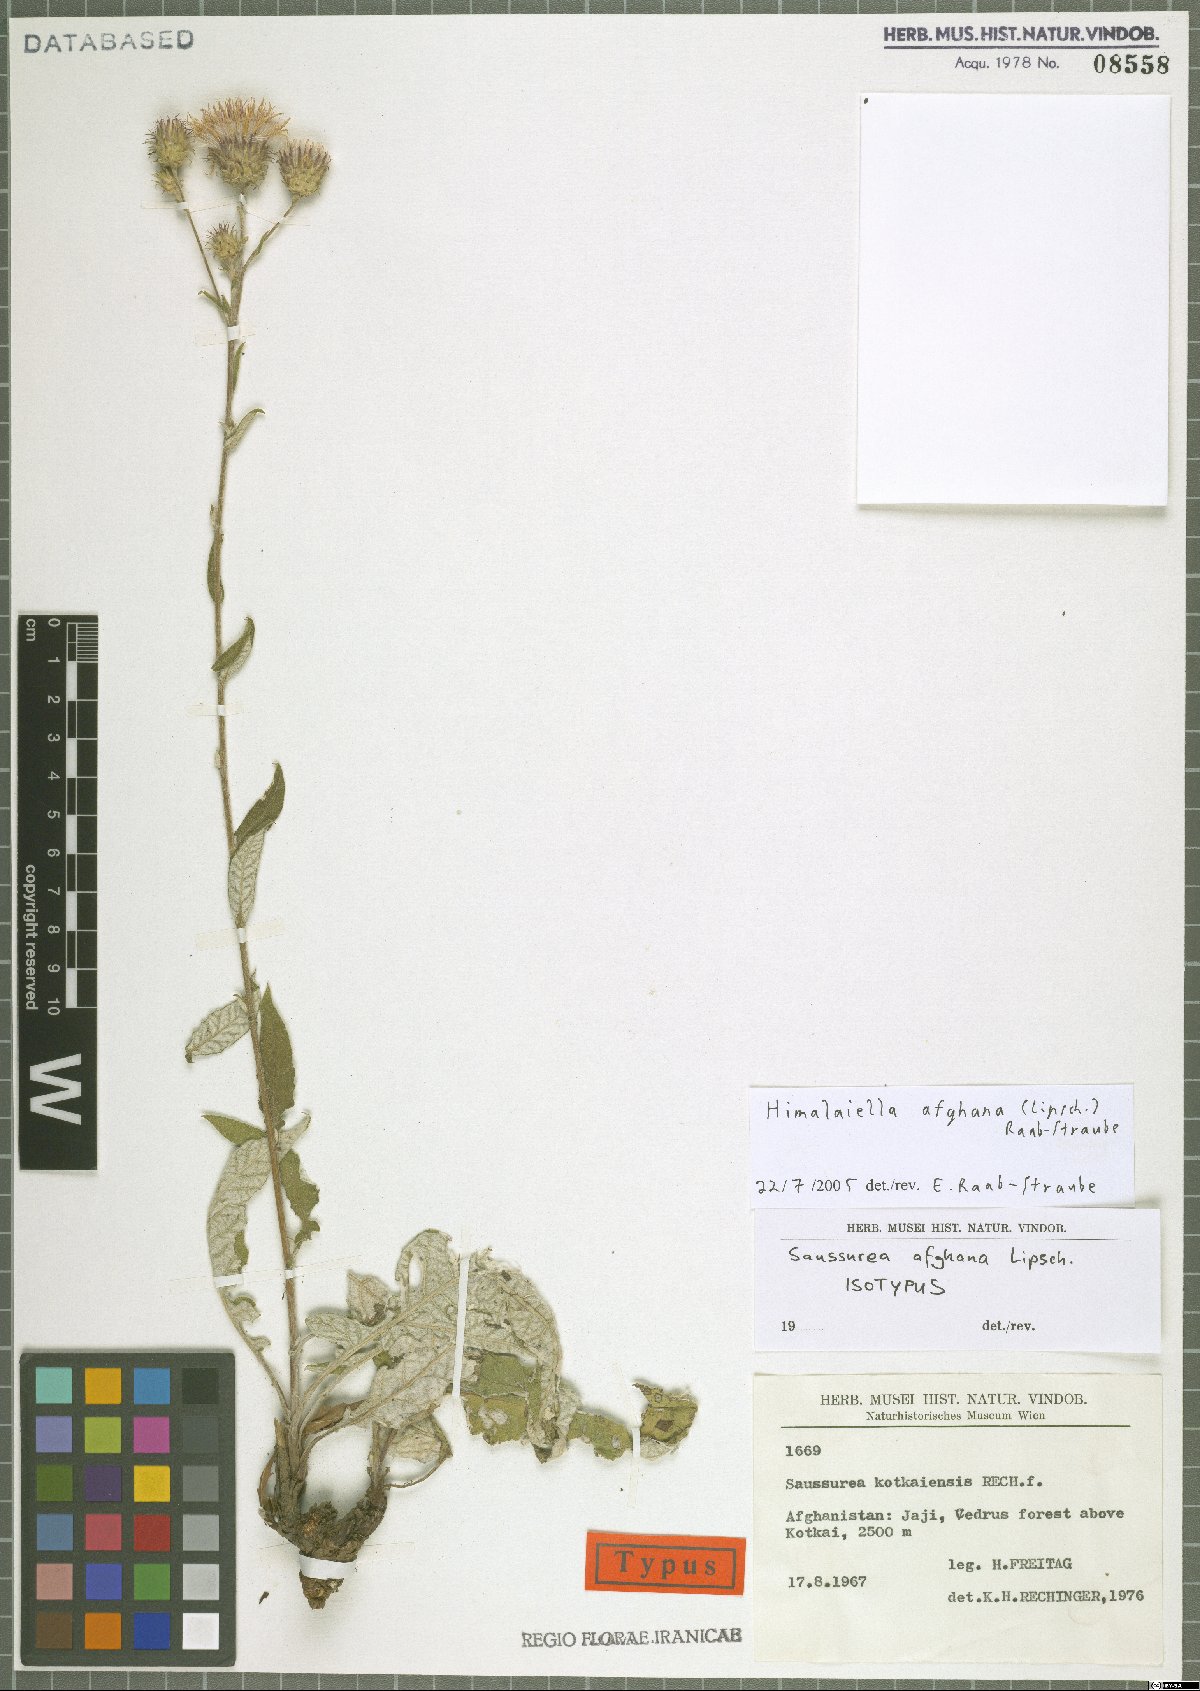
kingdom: Plantae
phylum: Tracheophyta
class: Magnoliopsida
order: Asterales
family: Asteraceae
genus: Saussurea
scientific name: Saussurea afghana
